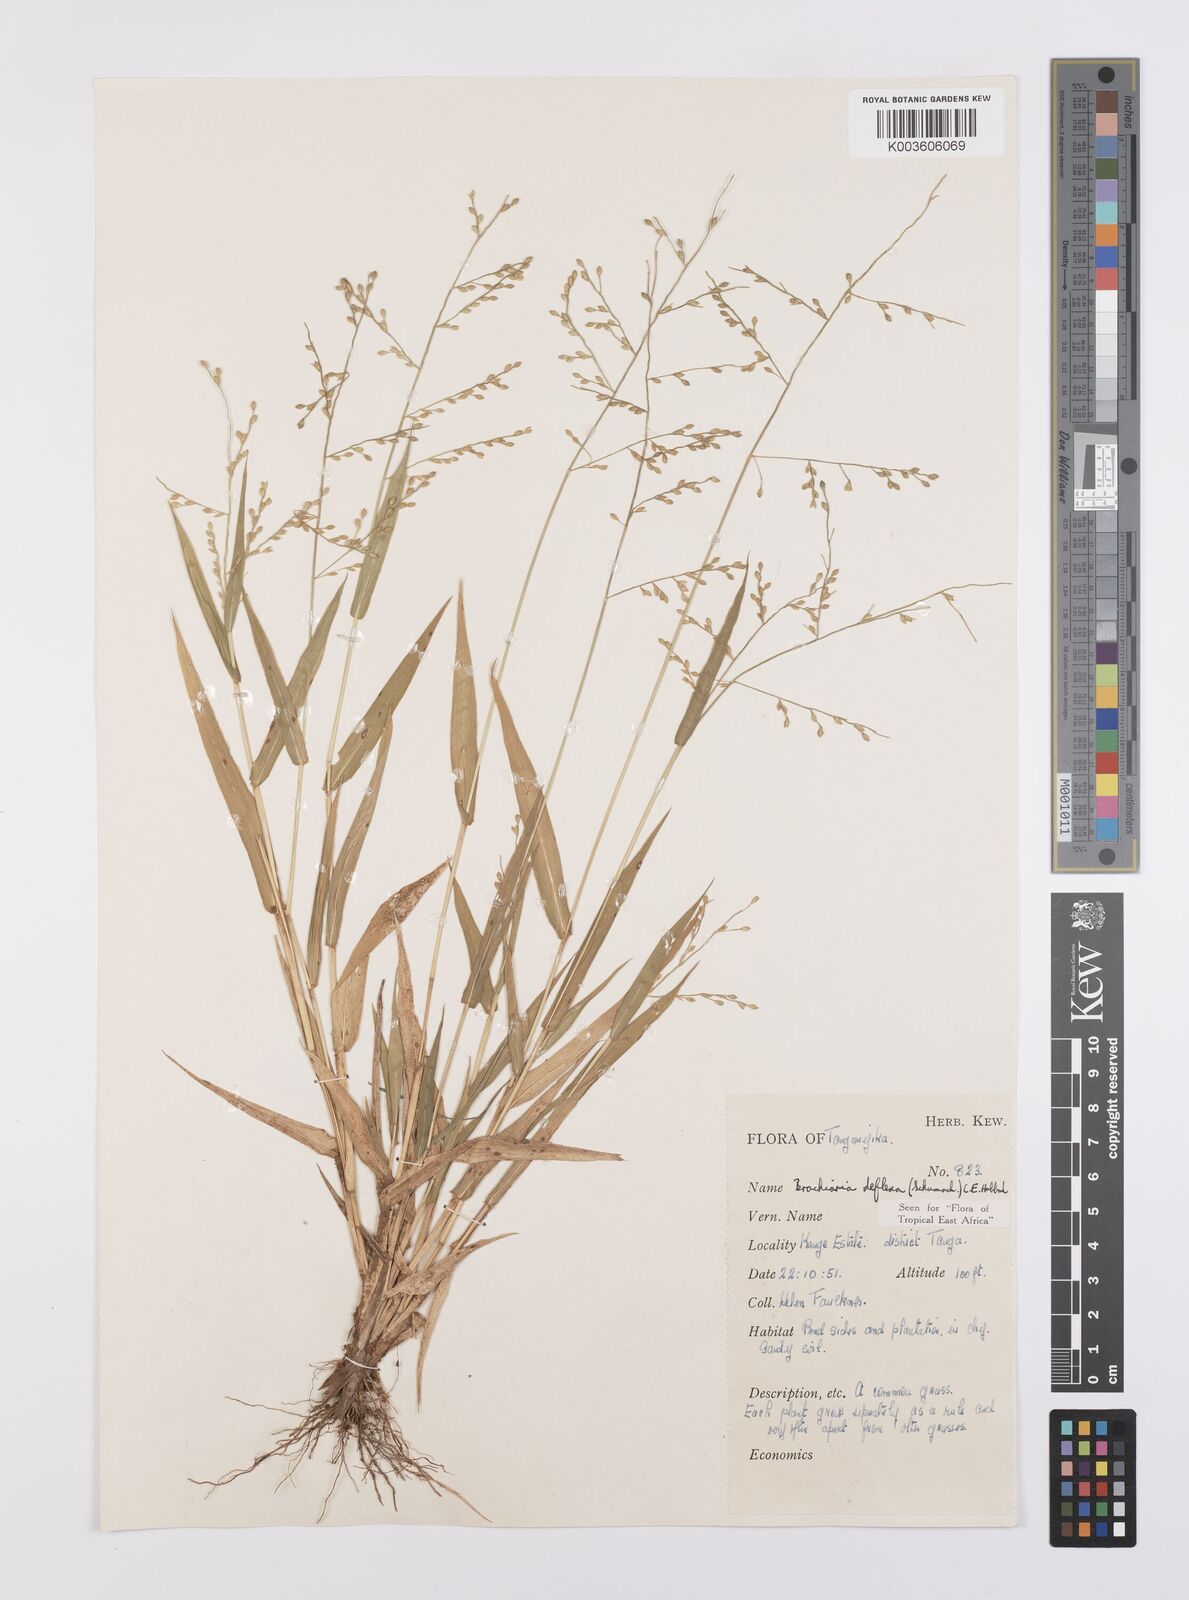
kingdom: Plantae
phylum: Tracheophyta
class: Liliopsida
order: Poales
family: Poaceae
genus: Urochloa
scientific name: Urochloa deflexa
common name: Guinea millet
